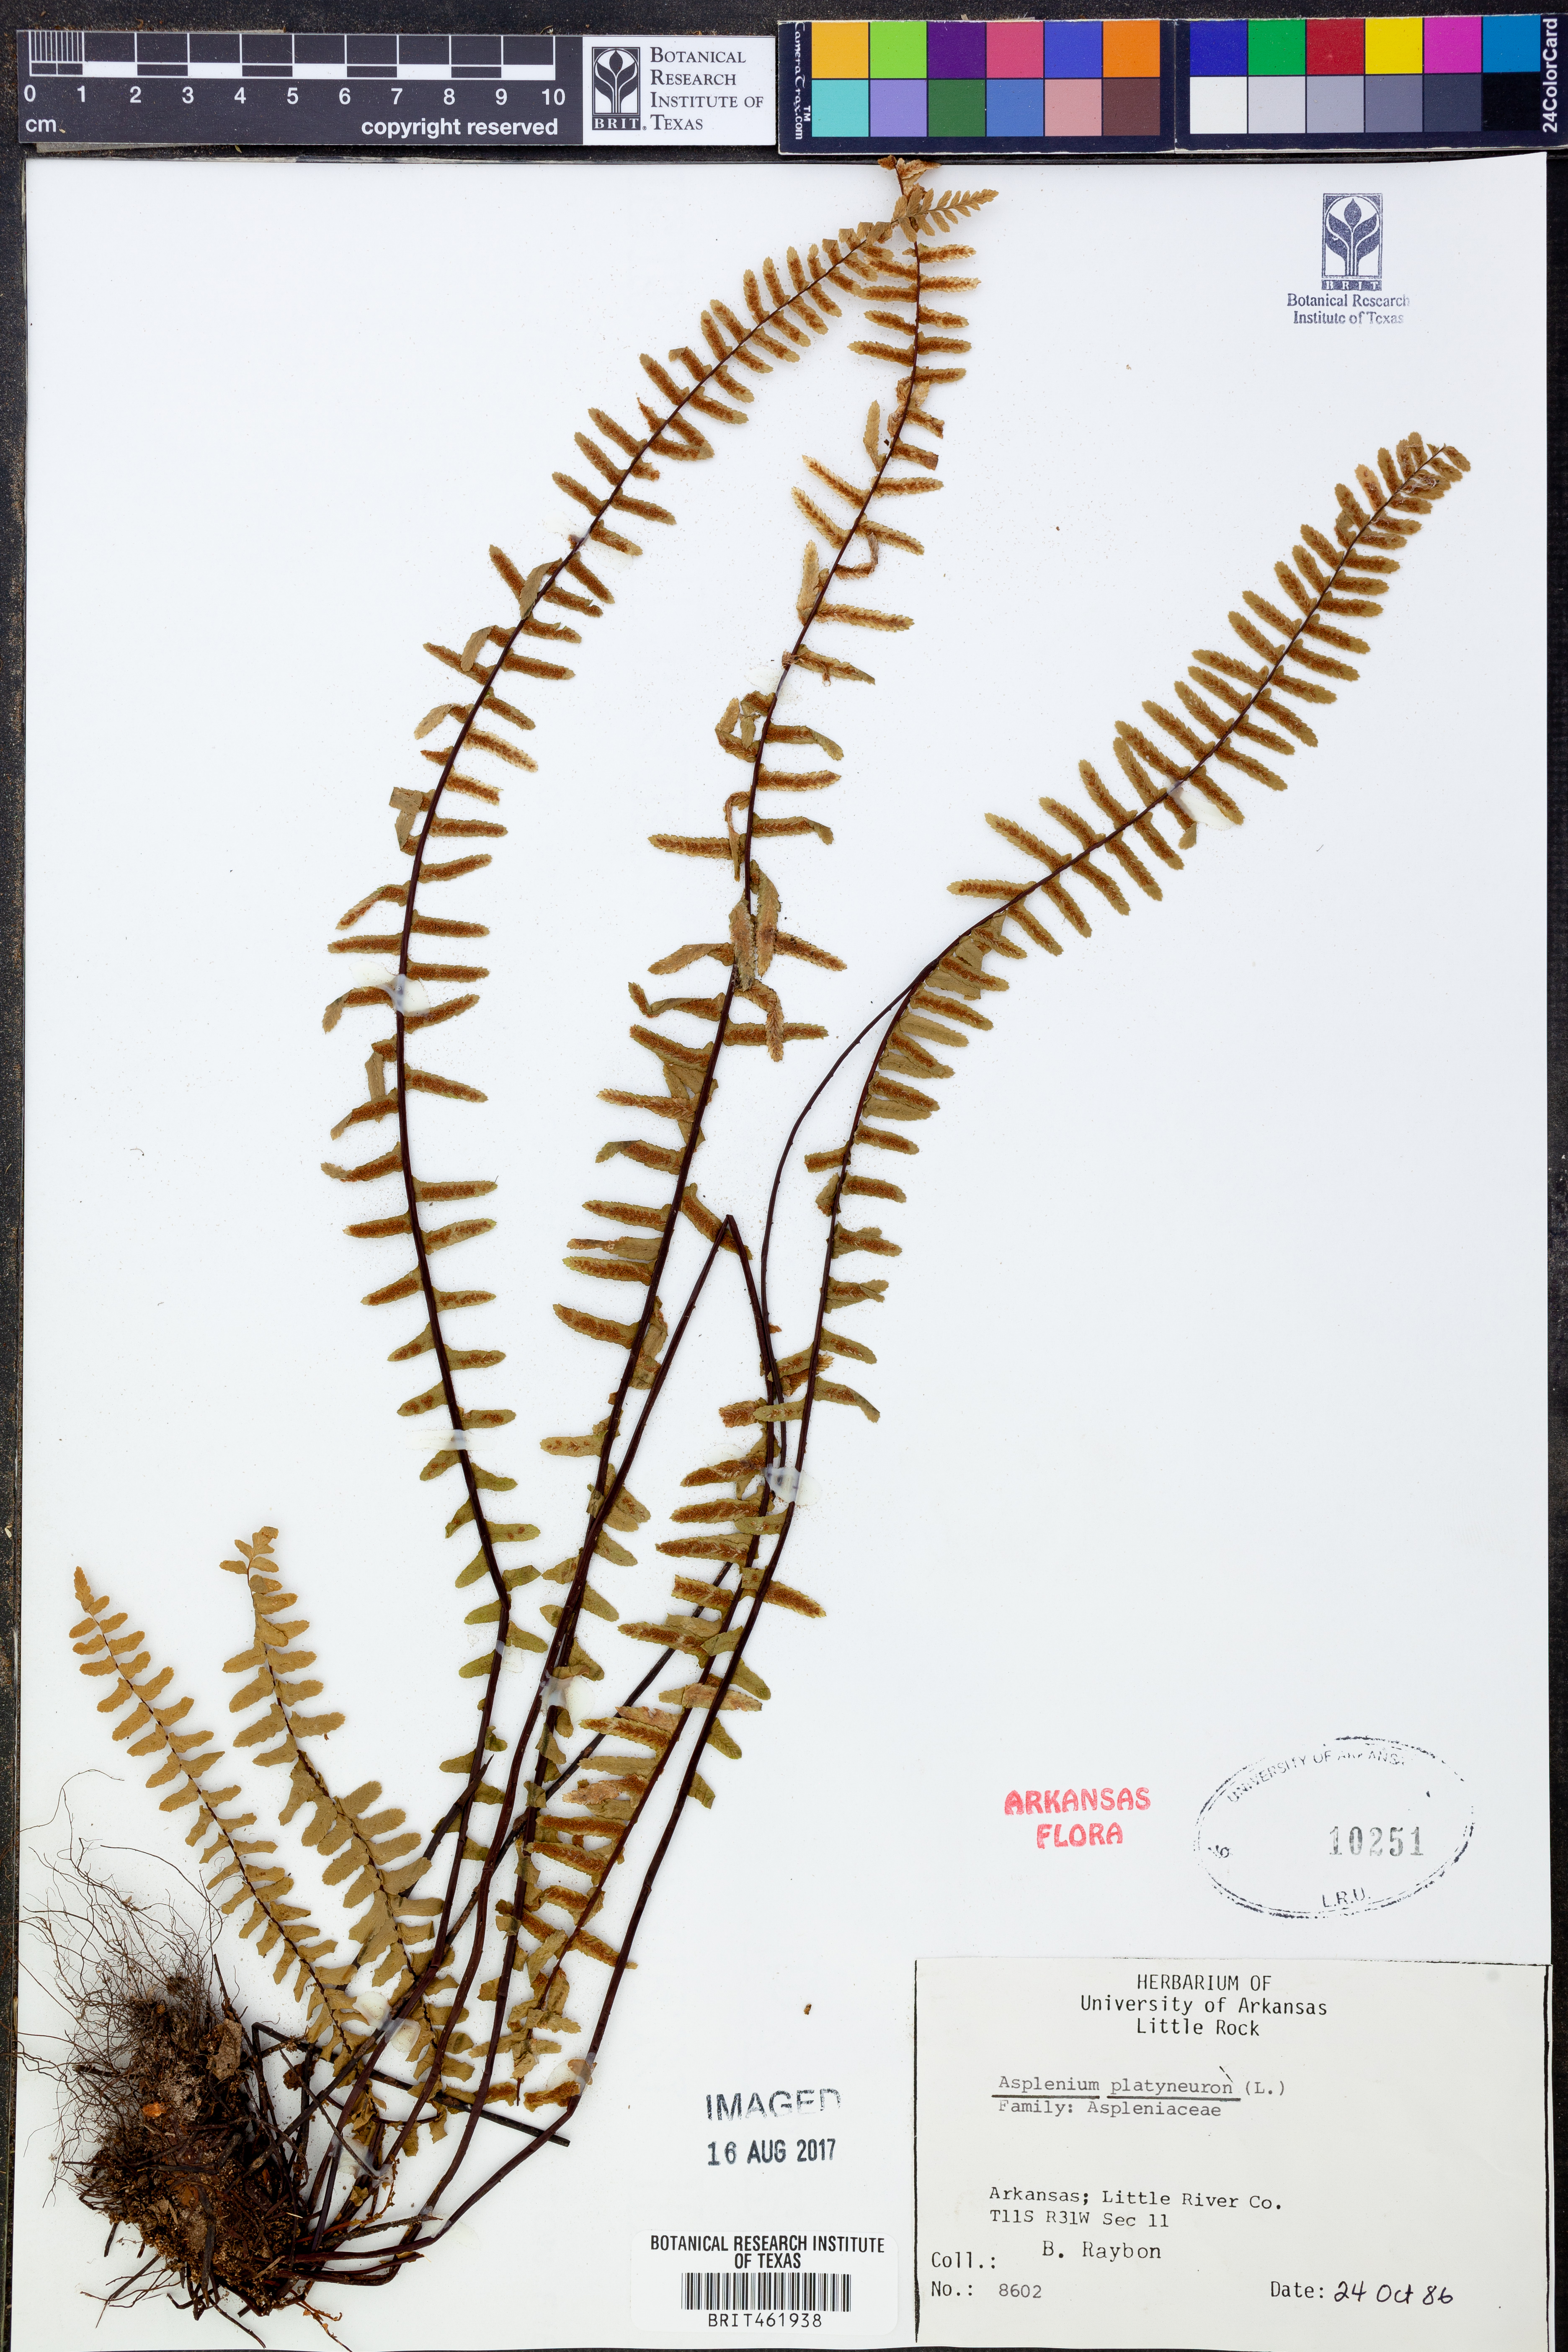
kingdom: Plantae
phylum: Tracheophyta
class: Polypodiopsida
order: Polypodiales
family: Aspleniaceae
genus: Asplenium
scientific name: Asplenium platyneuron
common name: Ebony spleenwort
